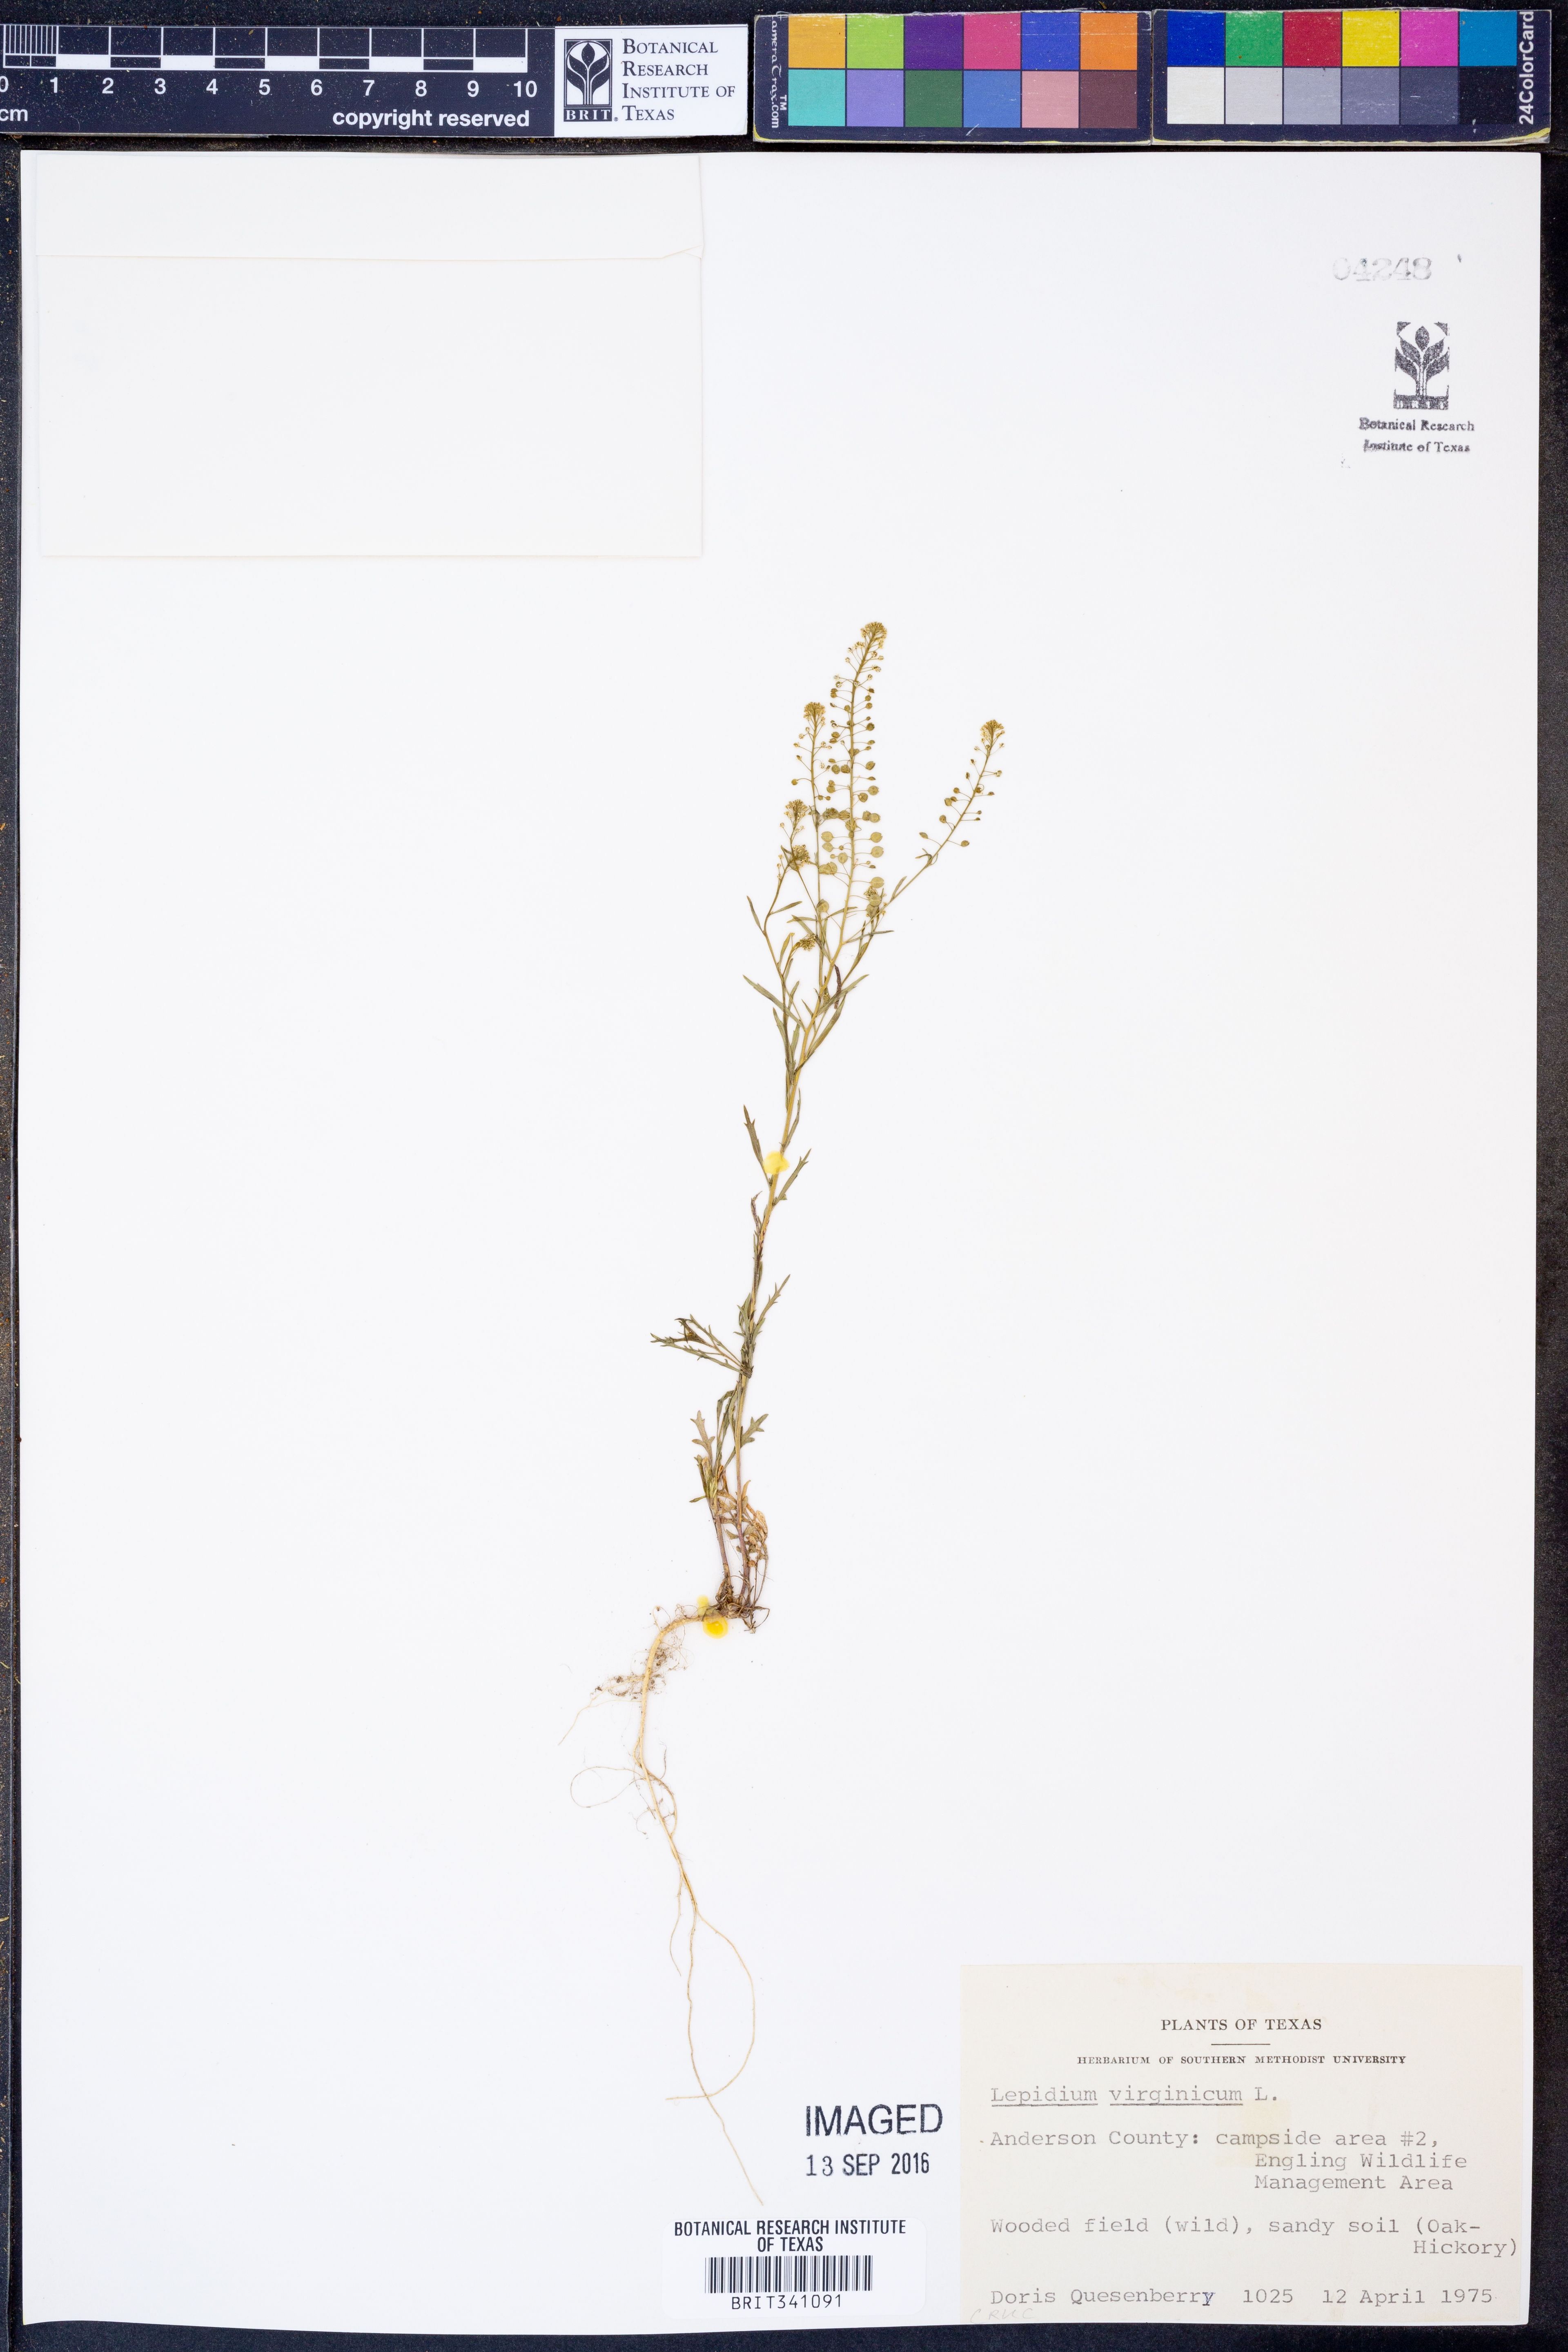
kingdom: Plantae
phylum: Tracheophyta
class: Magnoliopsida
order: Brassicales
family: Brassicaceae
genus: Lepidium
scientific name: Lepidium virginicum
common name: Least pepperwort
